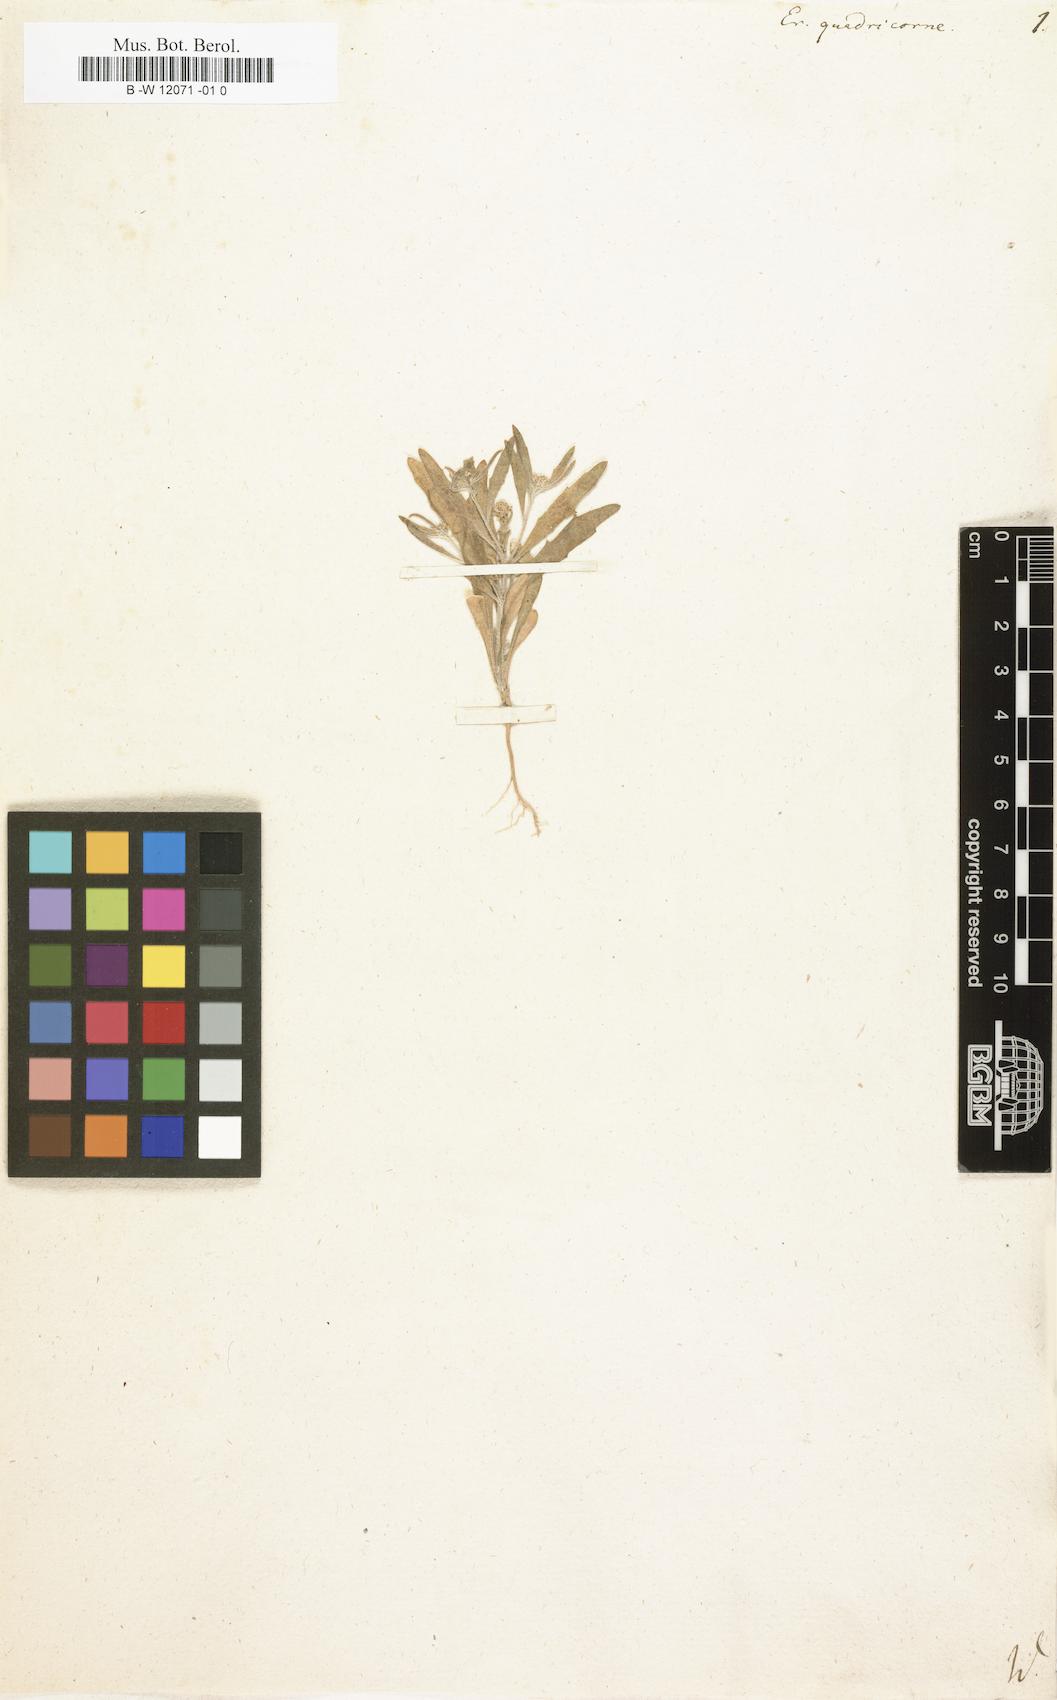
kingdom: Plantae
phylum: Tracheophyta
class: Magnoliopsida
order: Brassicales
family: Brassicaceae
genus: Tetracme
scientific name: Tetracme quadricornis
